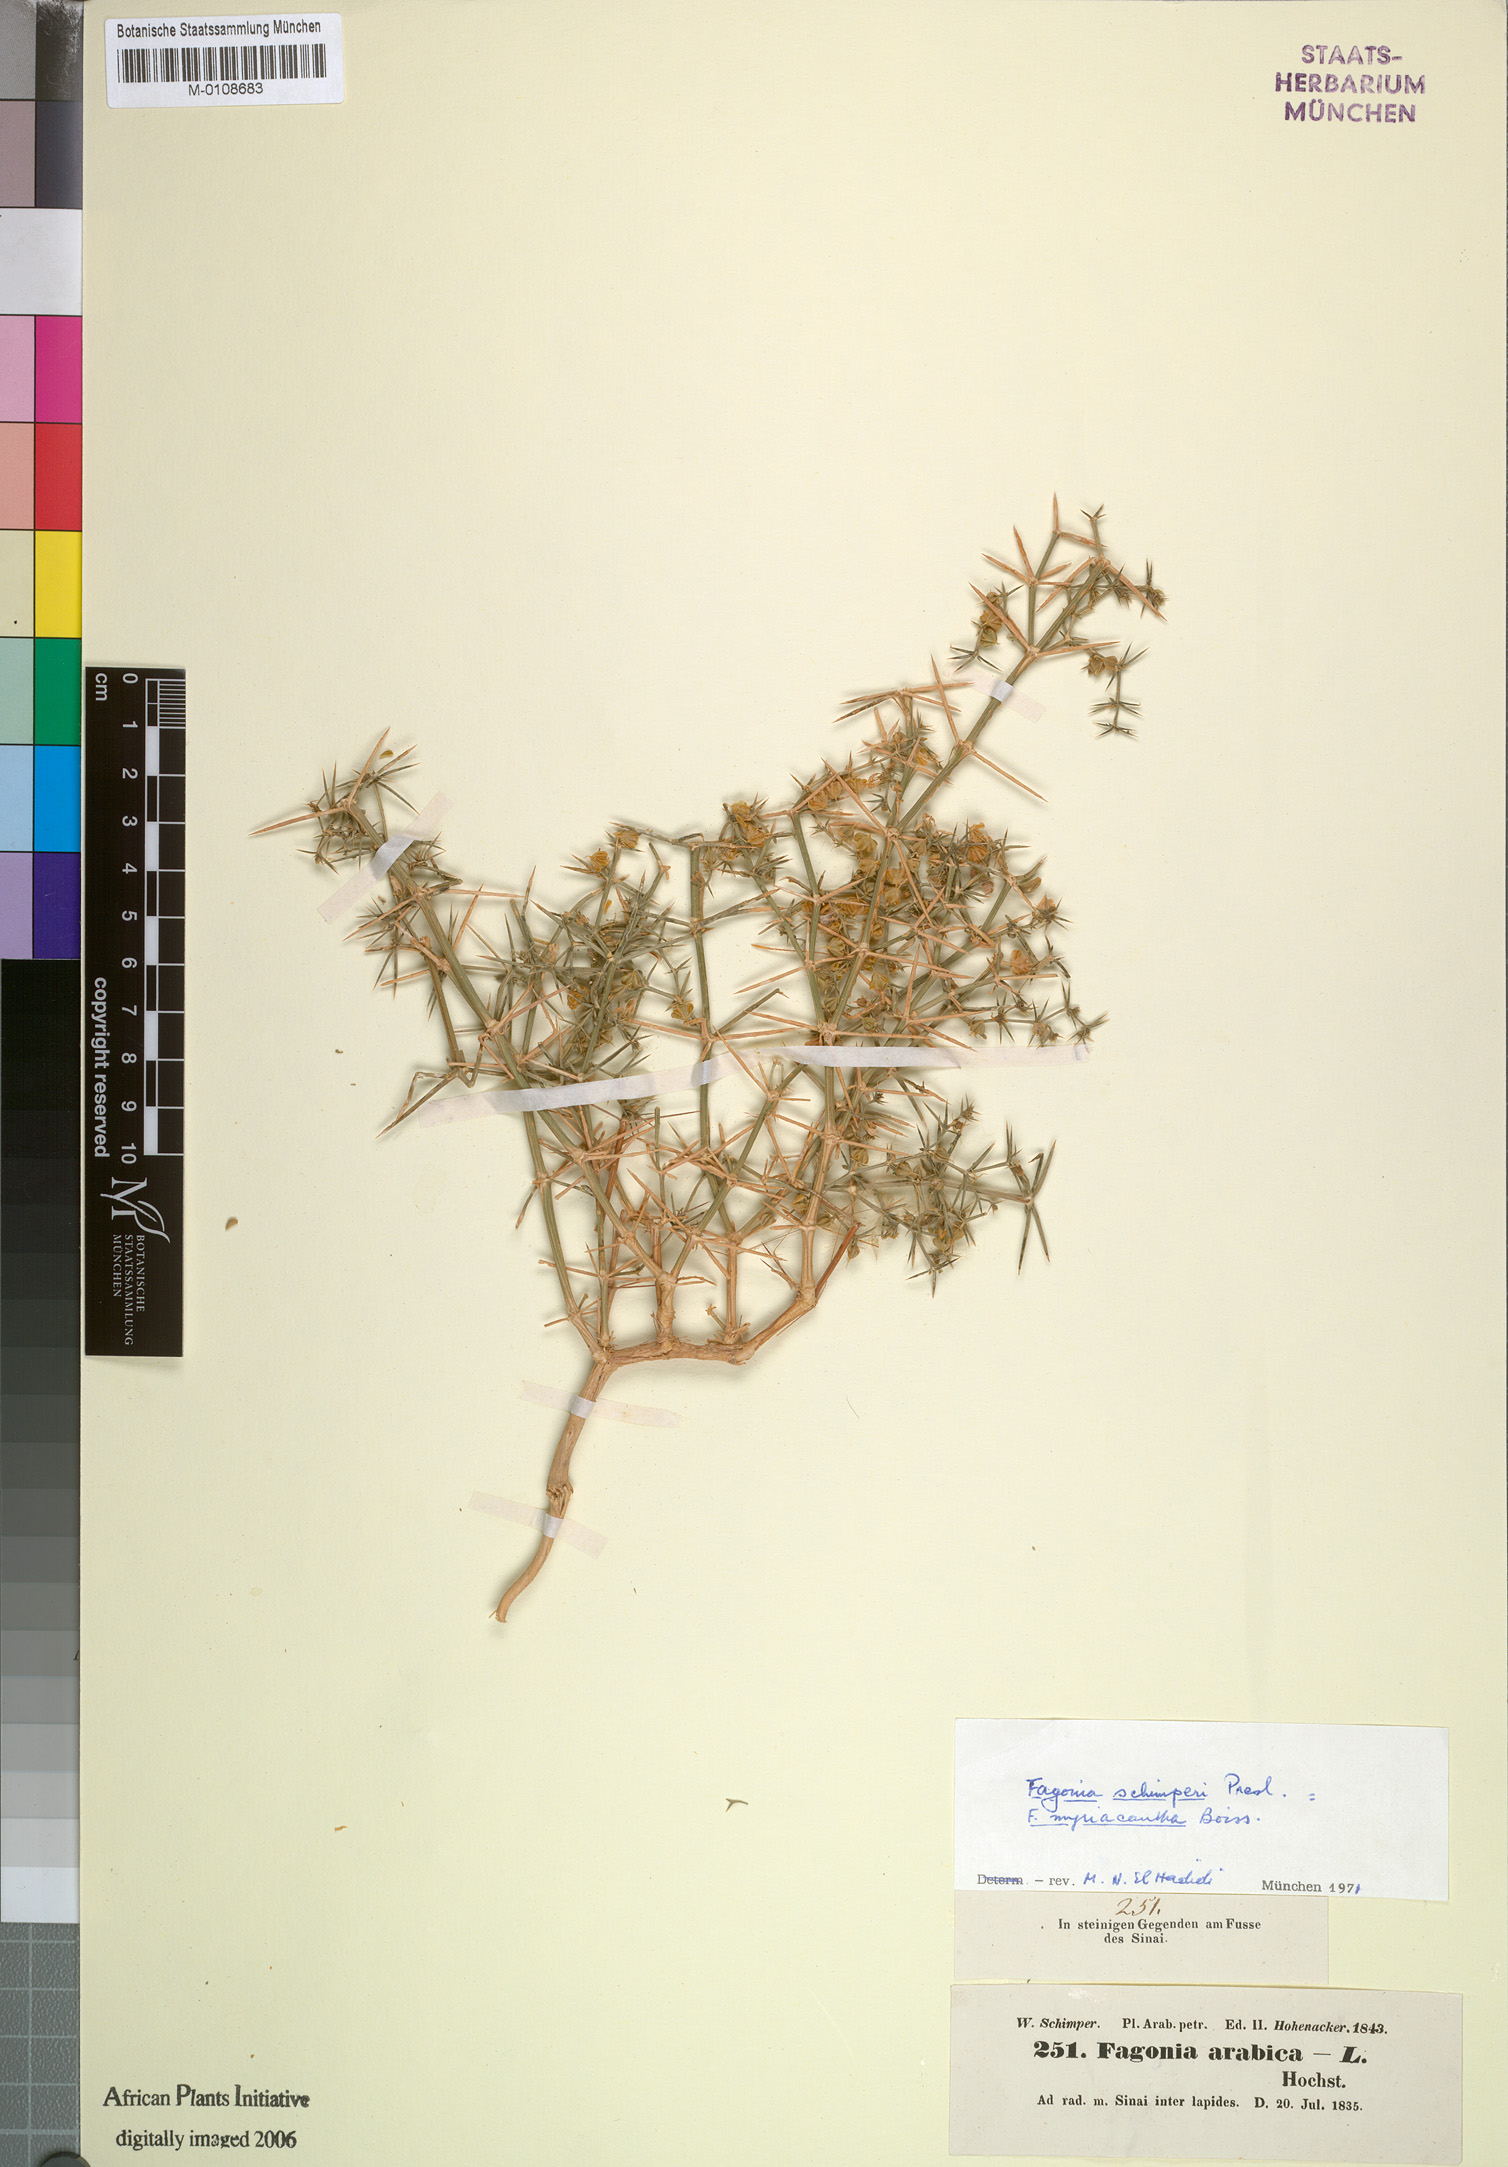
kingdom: Plantae
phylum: Tracheophyta
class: Magnoliopsida
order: Zygophyllales
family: Zygophyllaceae
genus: Fagonia
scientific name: Fagonia bruguieri
